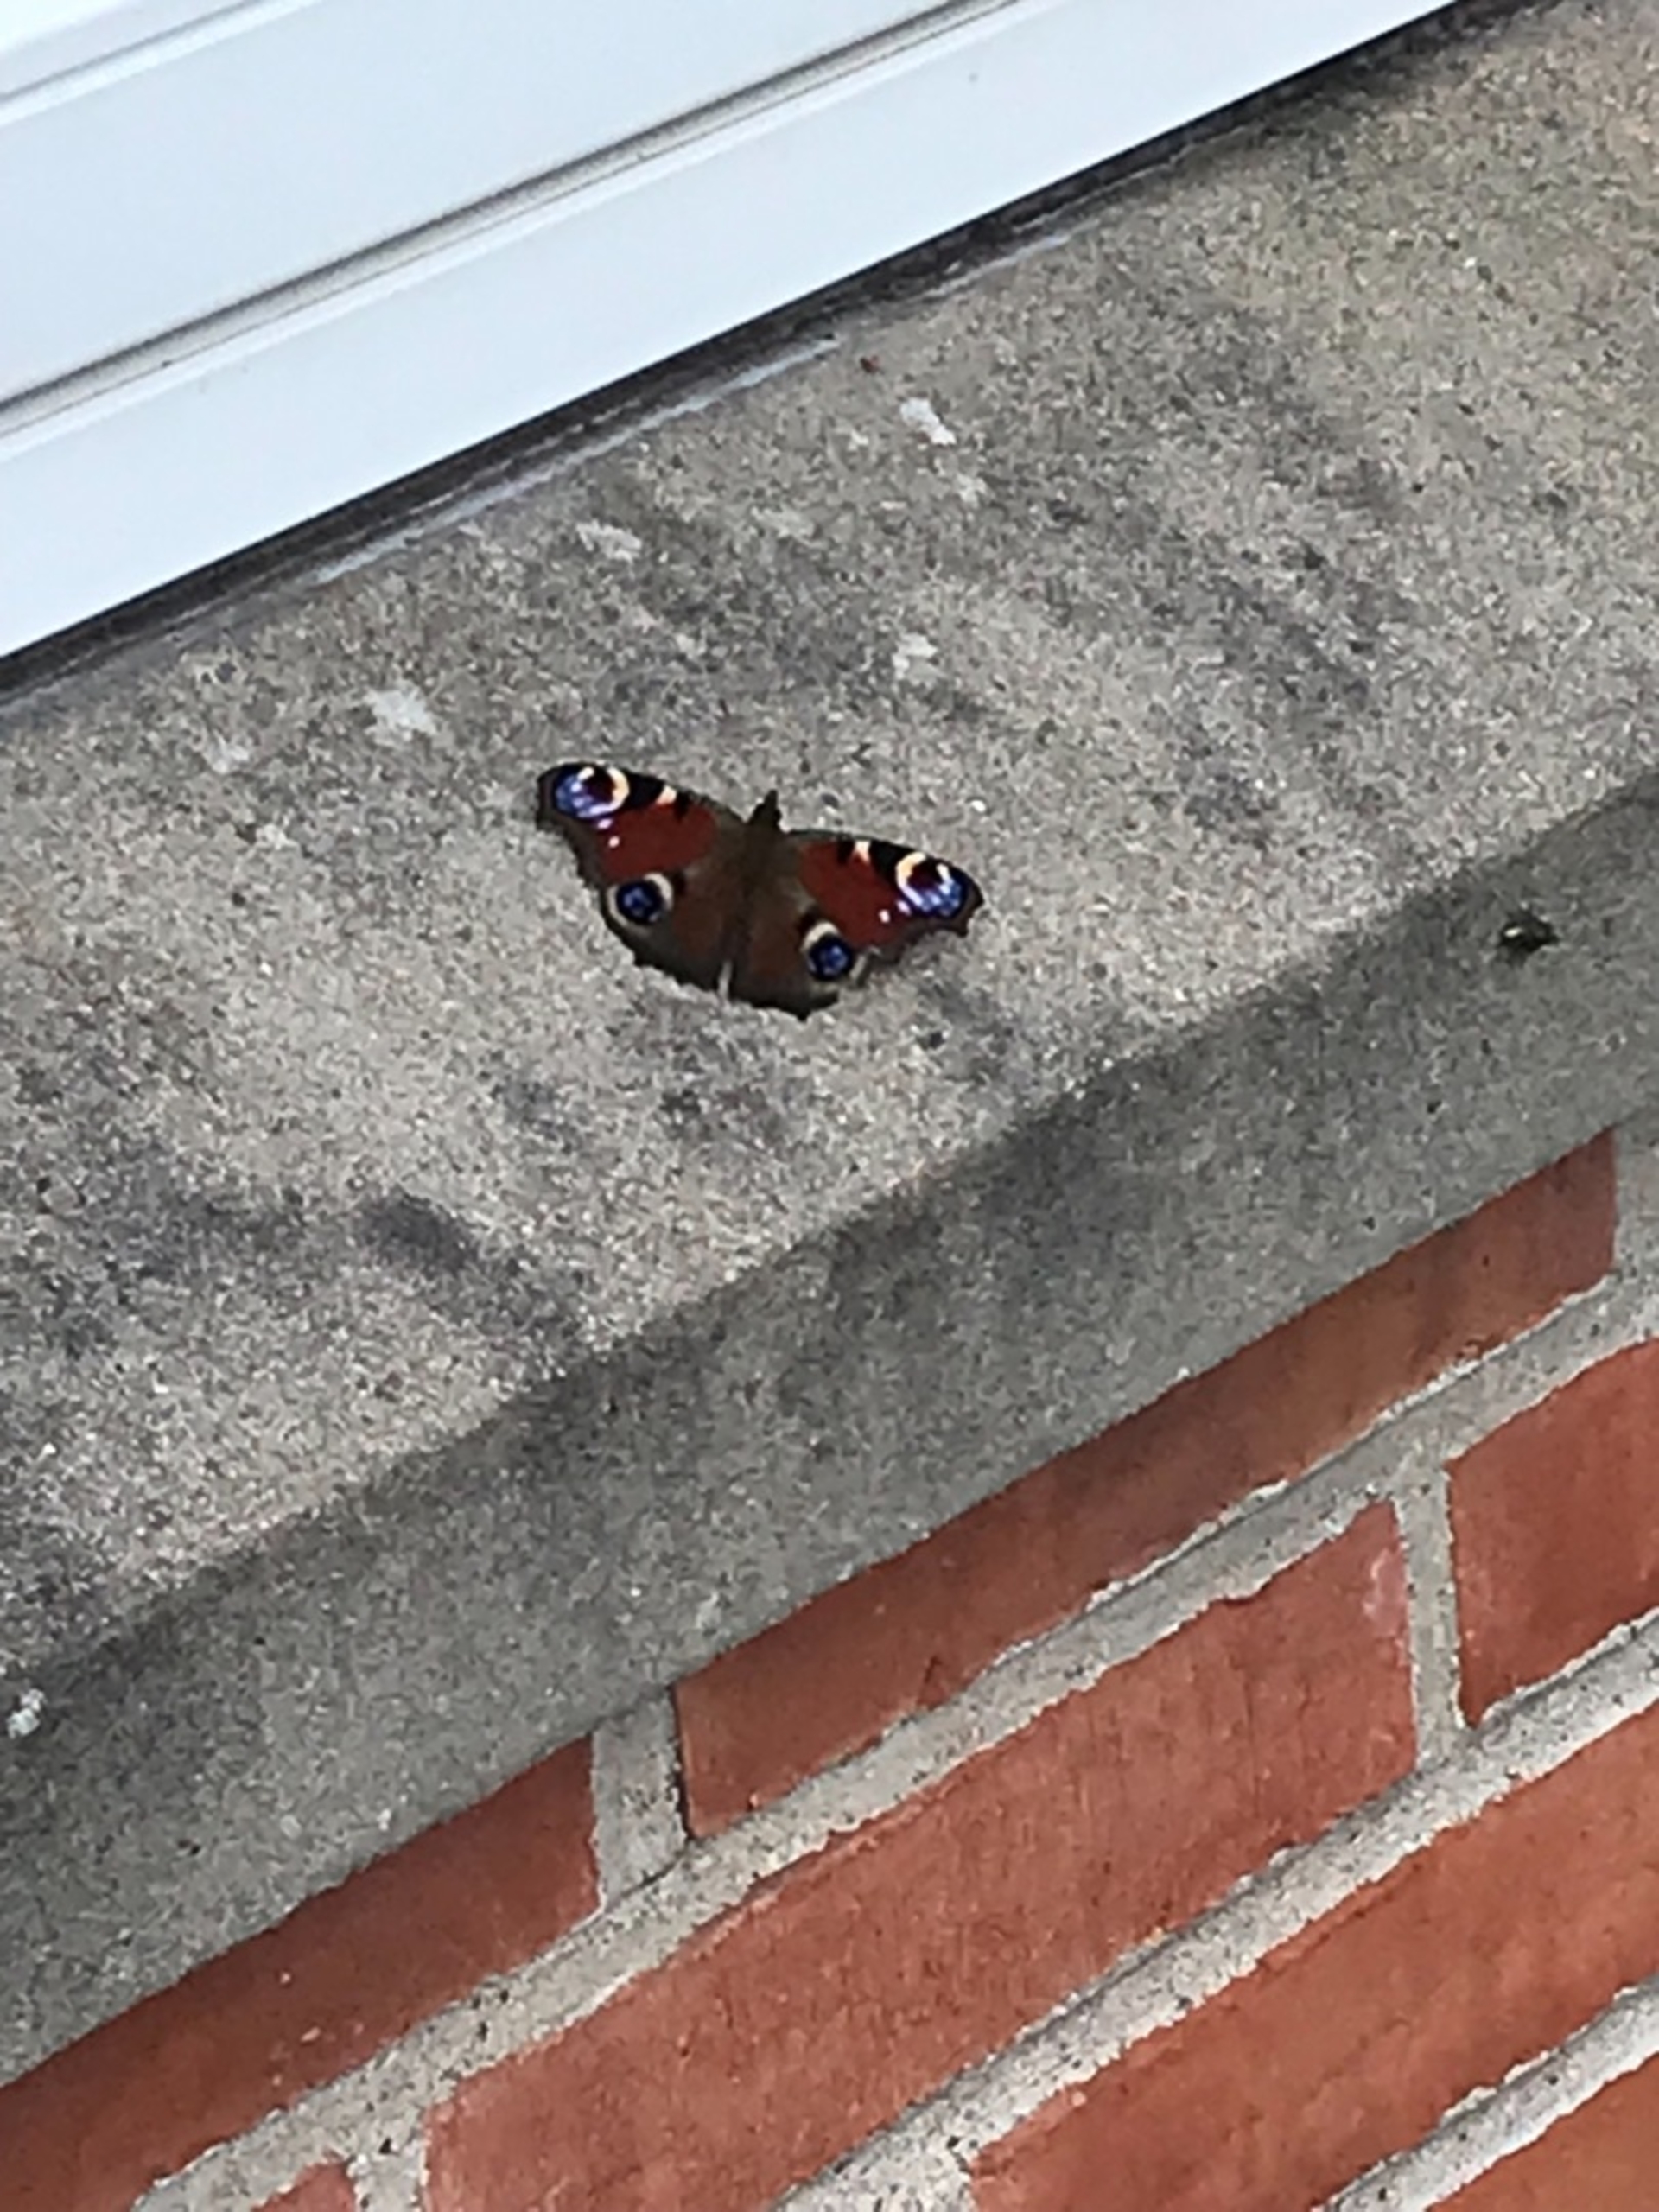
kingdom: Animalia
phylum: Arthropoda
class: Insecta
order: Lepidoptera
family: Nymphalidae
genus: Aglais
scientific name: Aglais io
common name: Dagpåfugleøje
